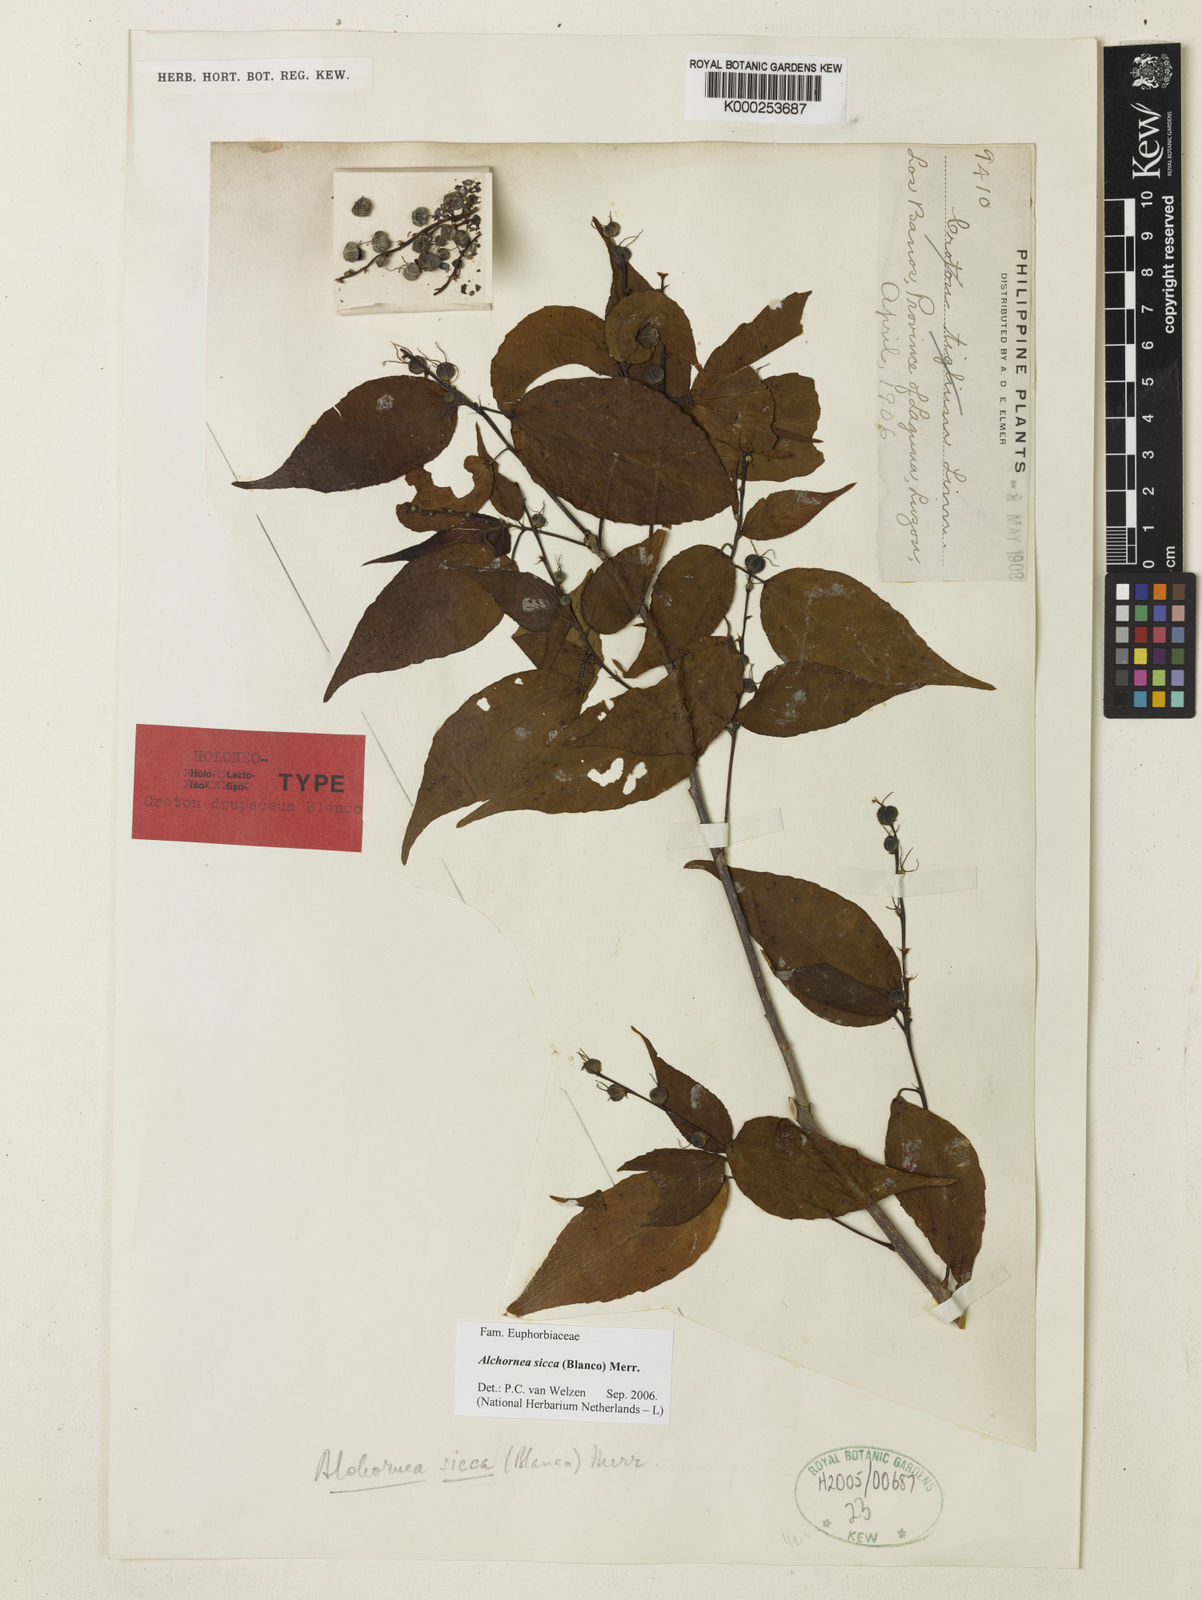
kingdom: Plantae
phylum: Tracheophyta
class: Magnoliopsida
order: Malpighiales
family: Euphorbiaceae
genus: Alchornea
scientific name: Alchornea sicca
